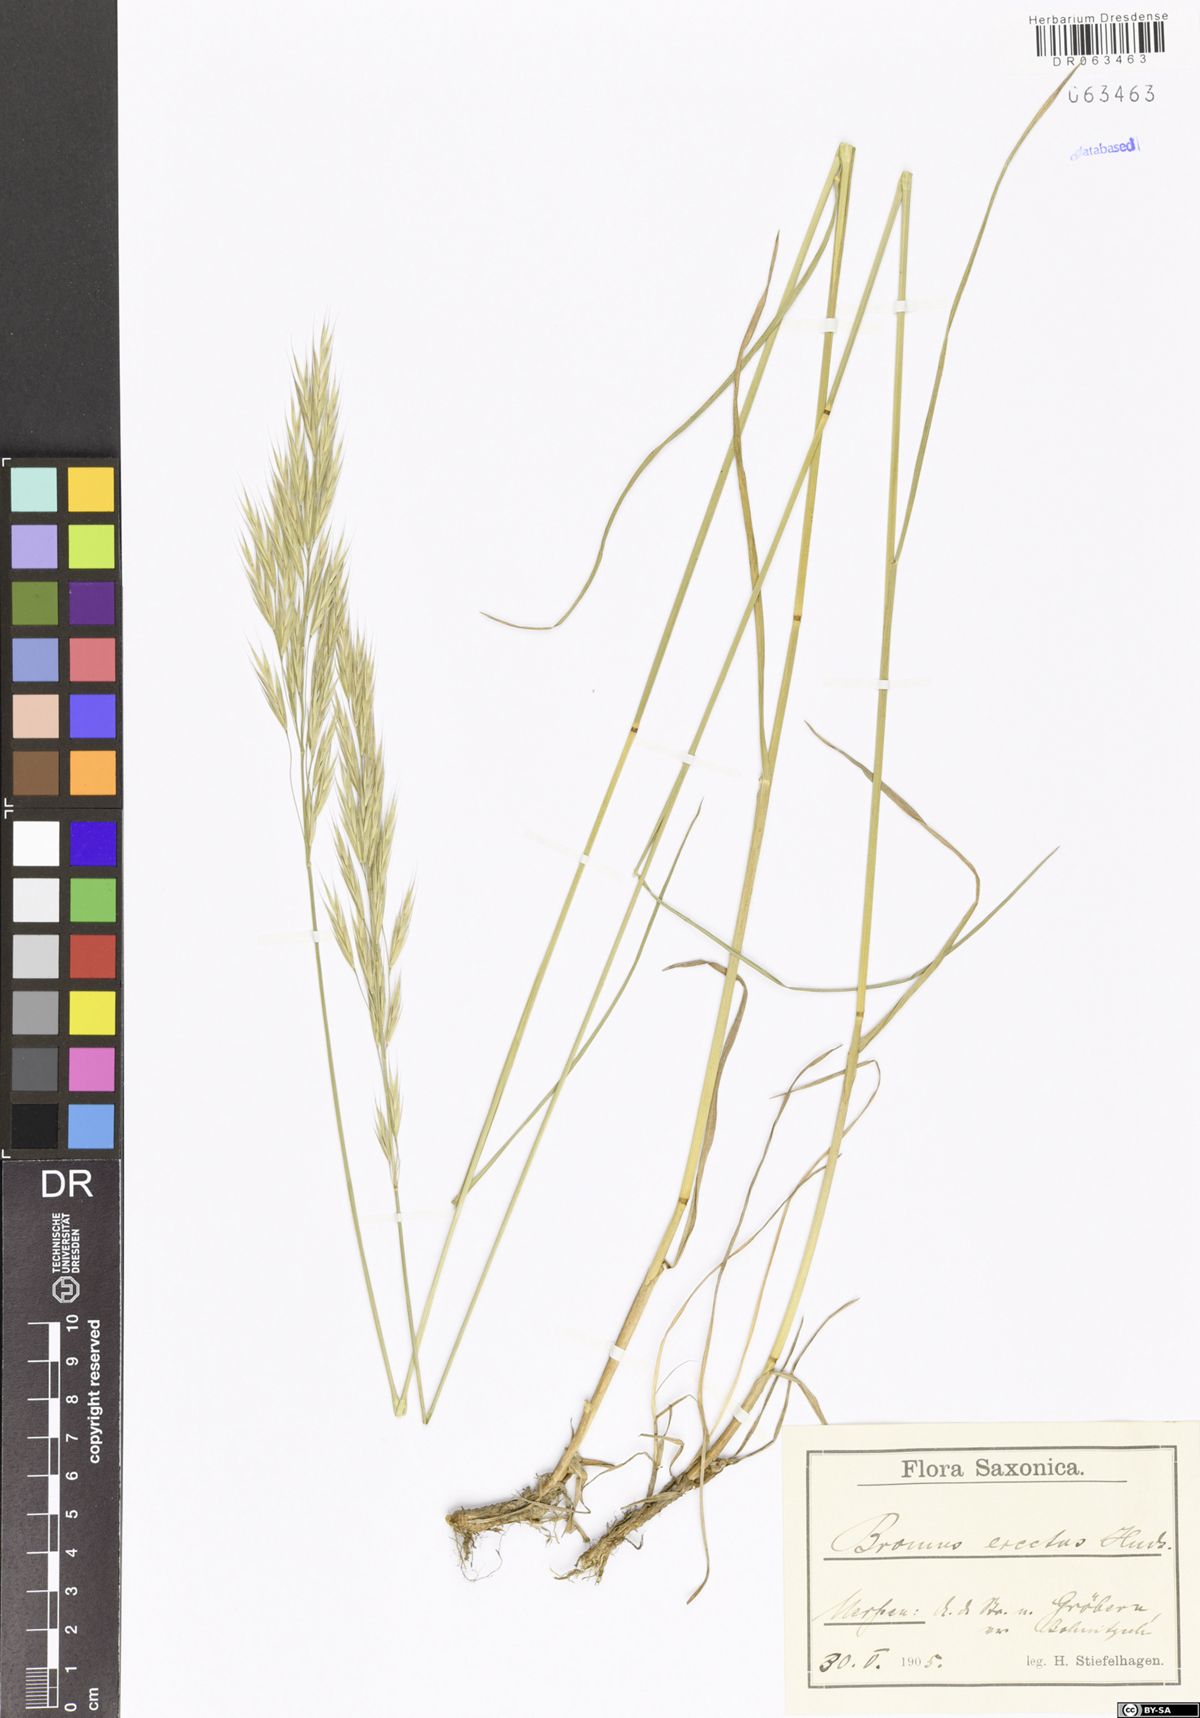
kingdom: Plantae
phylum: Tracheophyta
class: Liliopsida
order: Poales
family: Poaceae
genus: Bromus
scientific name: Bromus erectus
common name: Erect brome
